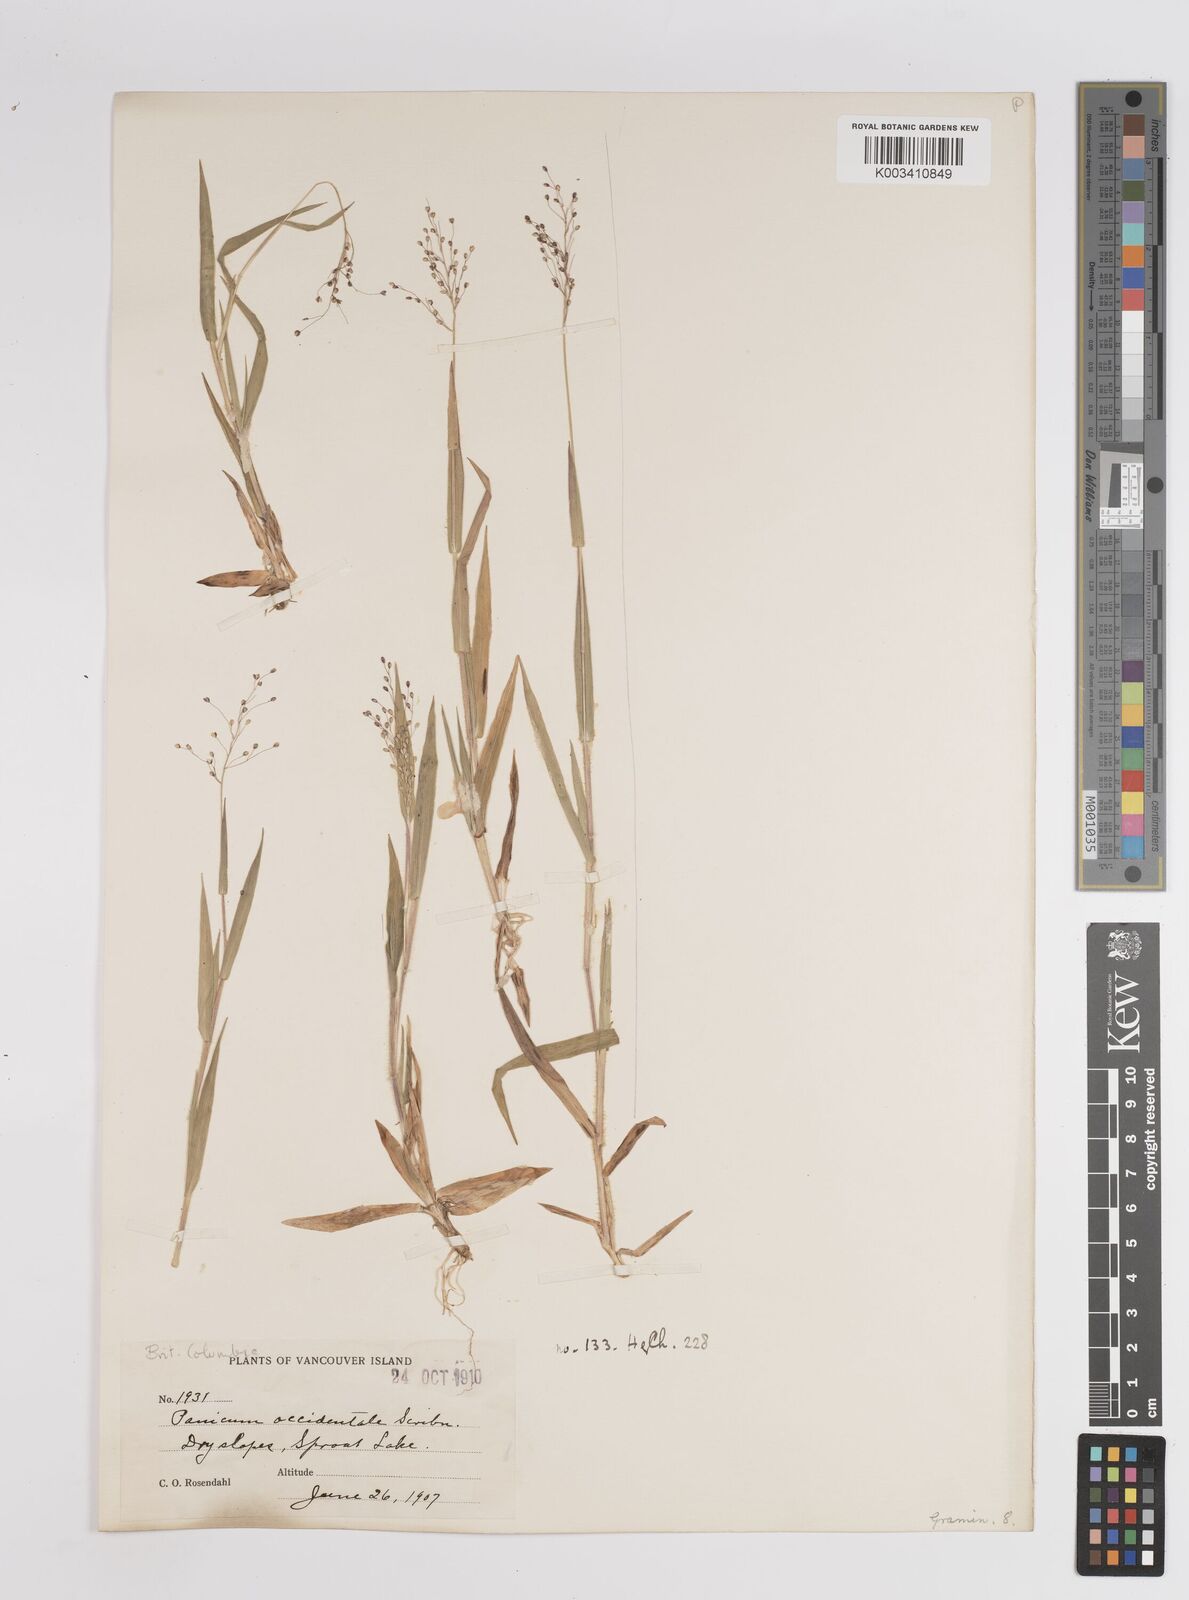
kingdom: Plantae
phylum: Tracheophyta
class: Liliopsida
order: Poales
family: Poaceae
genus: Dichanthelium
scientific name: Dichanthelium implicatum
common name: Slender-stemmed panicgrass
